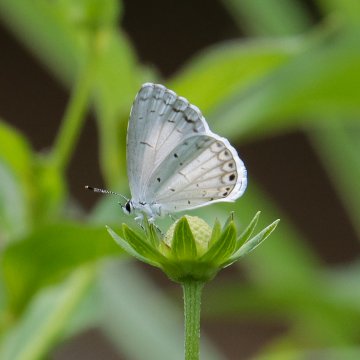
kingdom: Animalia
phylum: Arthropoda
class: Insecta
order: Lepidoptera
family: Lycaenidae
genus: Cyaniris
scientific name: Cyaniris neglecta
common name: Summer Azure
